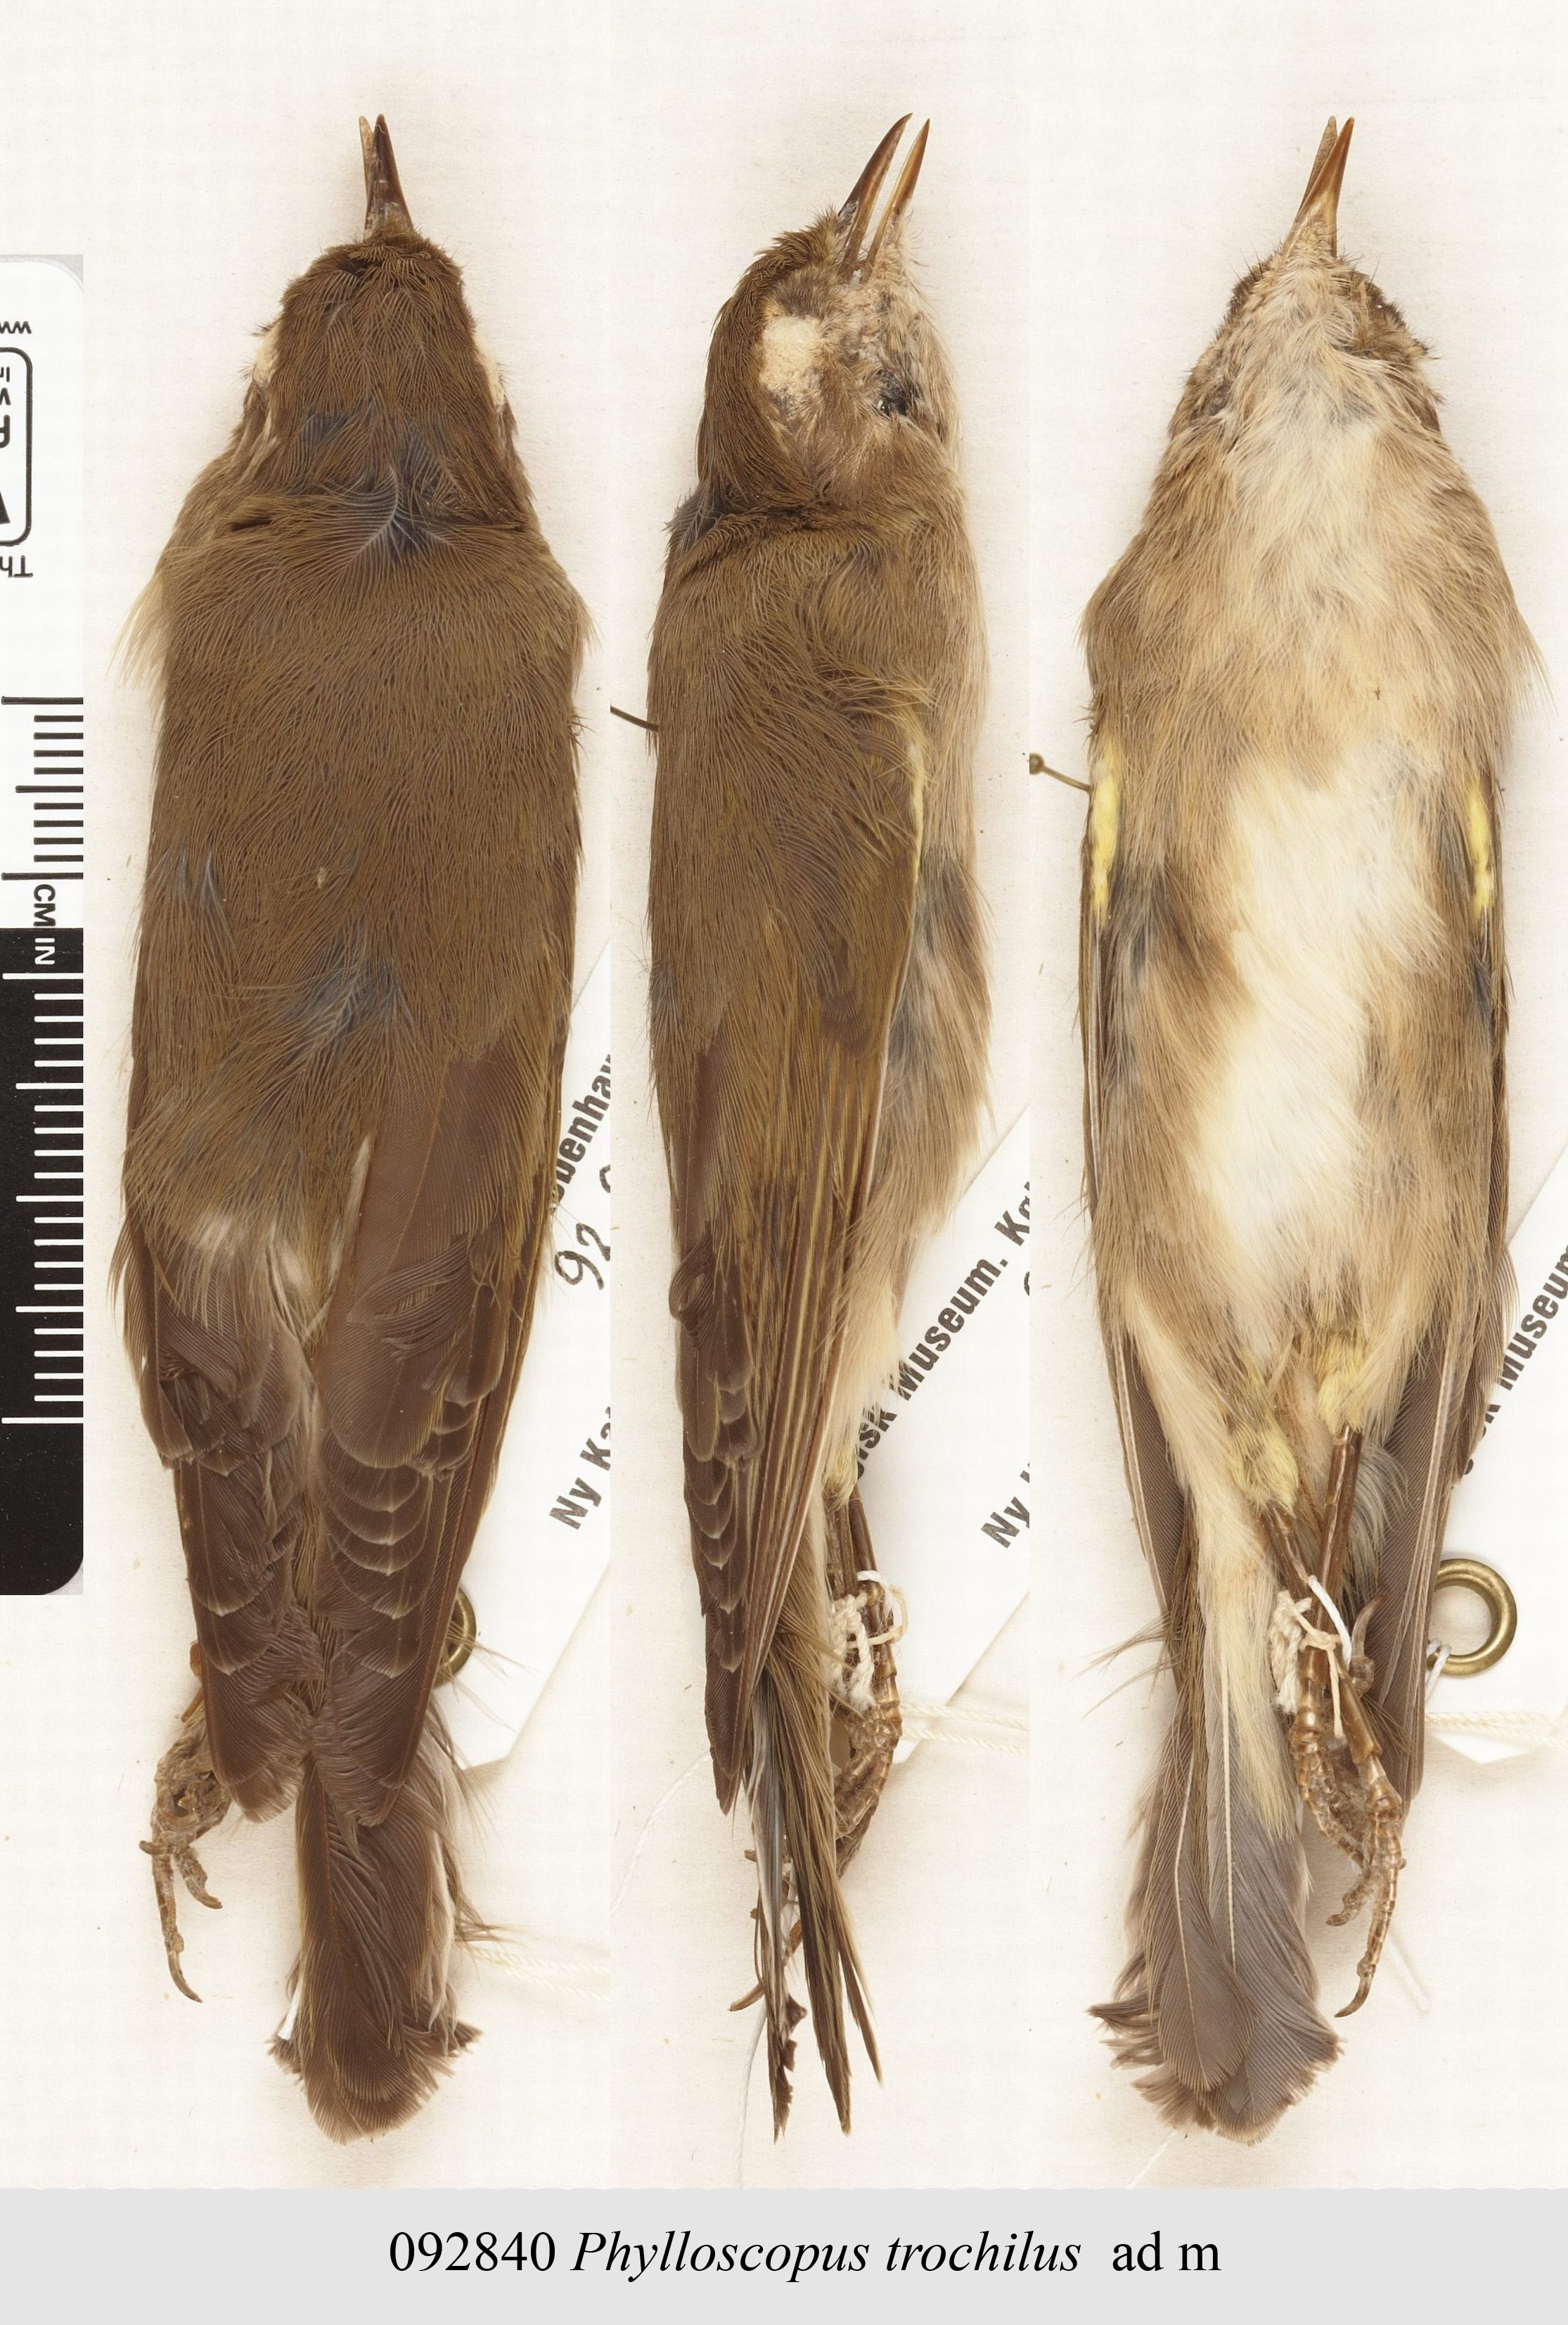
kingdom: Animalia
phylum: Chordata
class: Aves
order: Passeriformes
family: Phylloscopidae
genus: Phylloscopus
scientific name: Phylloscopus trochilus
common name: Willow warbler
